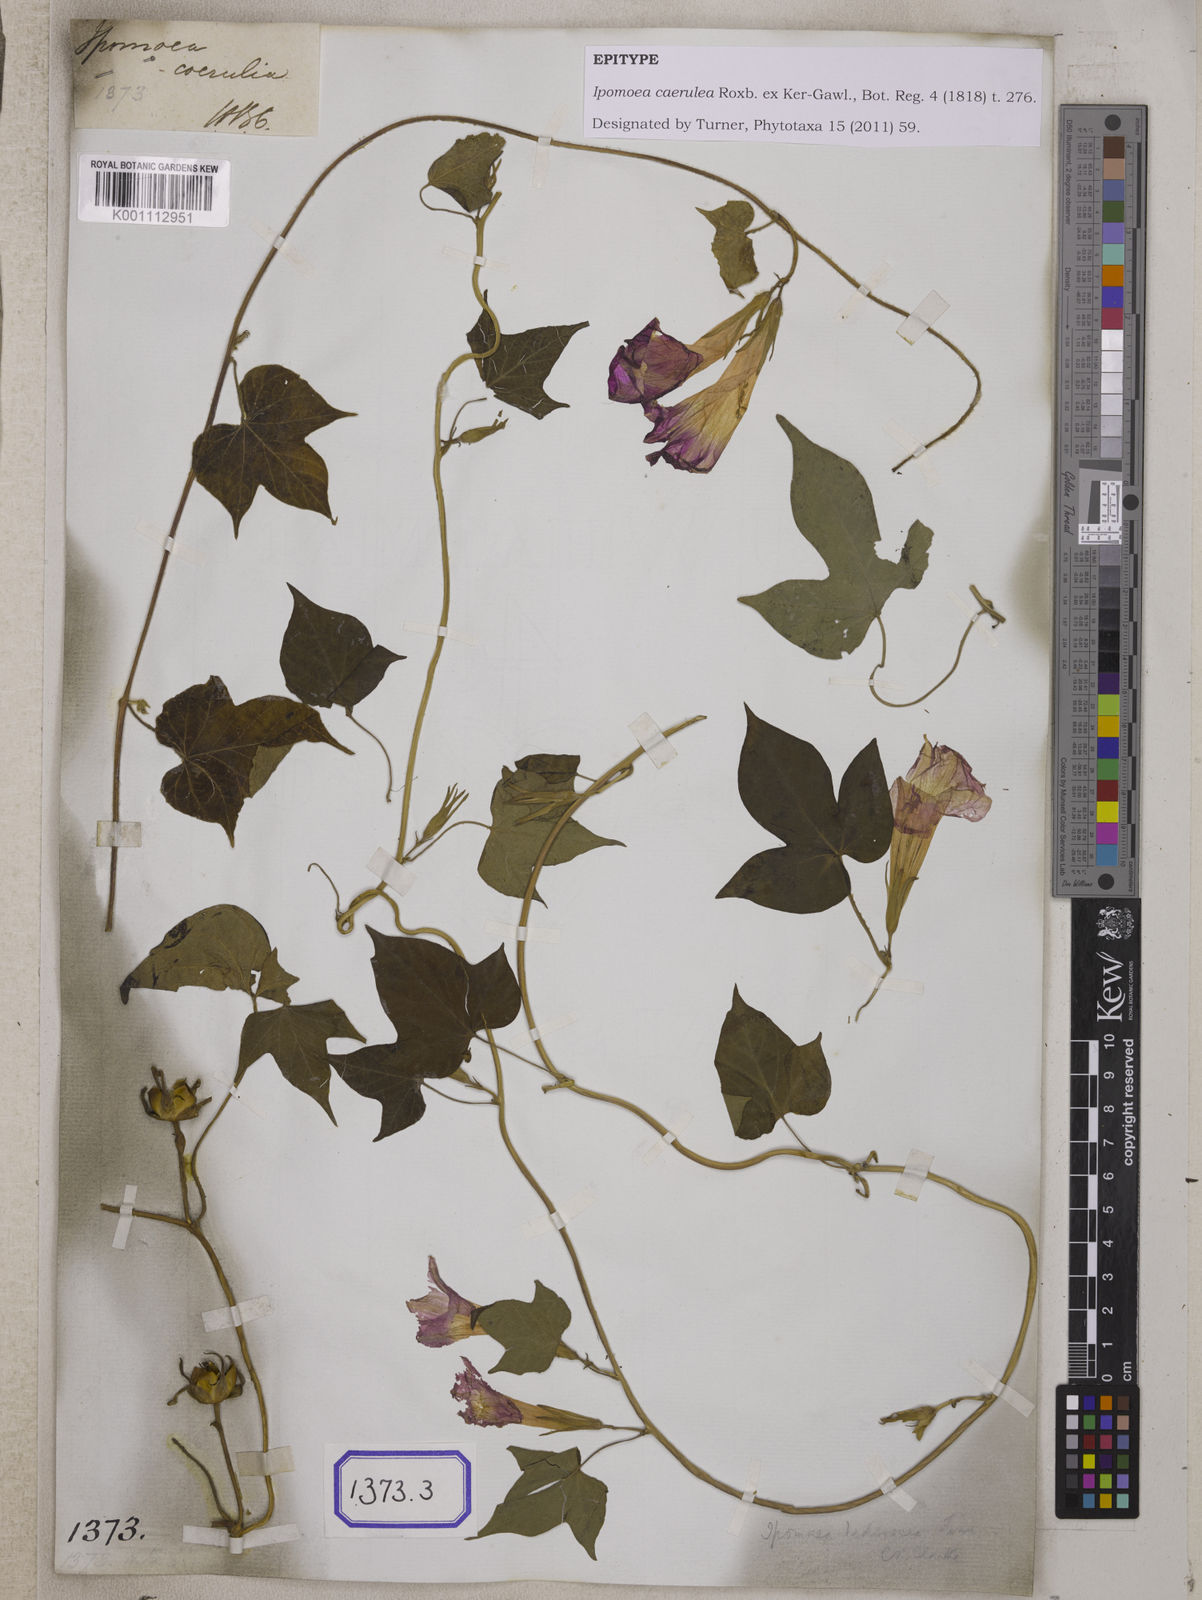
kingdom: Plantae
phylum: Tracheophyta
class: Magnoliopsida
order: Solanales
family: Convolvulaceae
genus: Ipomoea
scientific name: Ipomoea nil
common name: Japanese morning-glory
